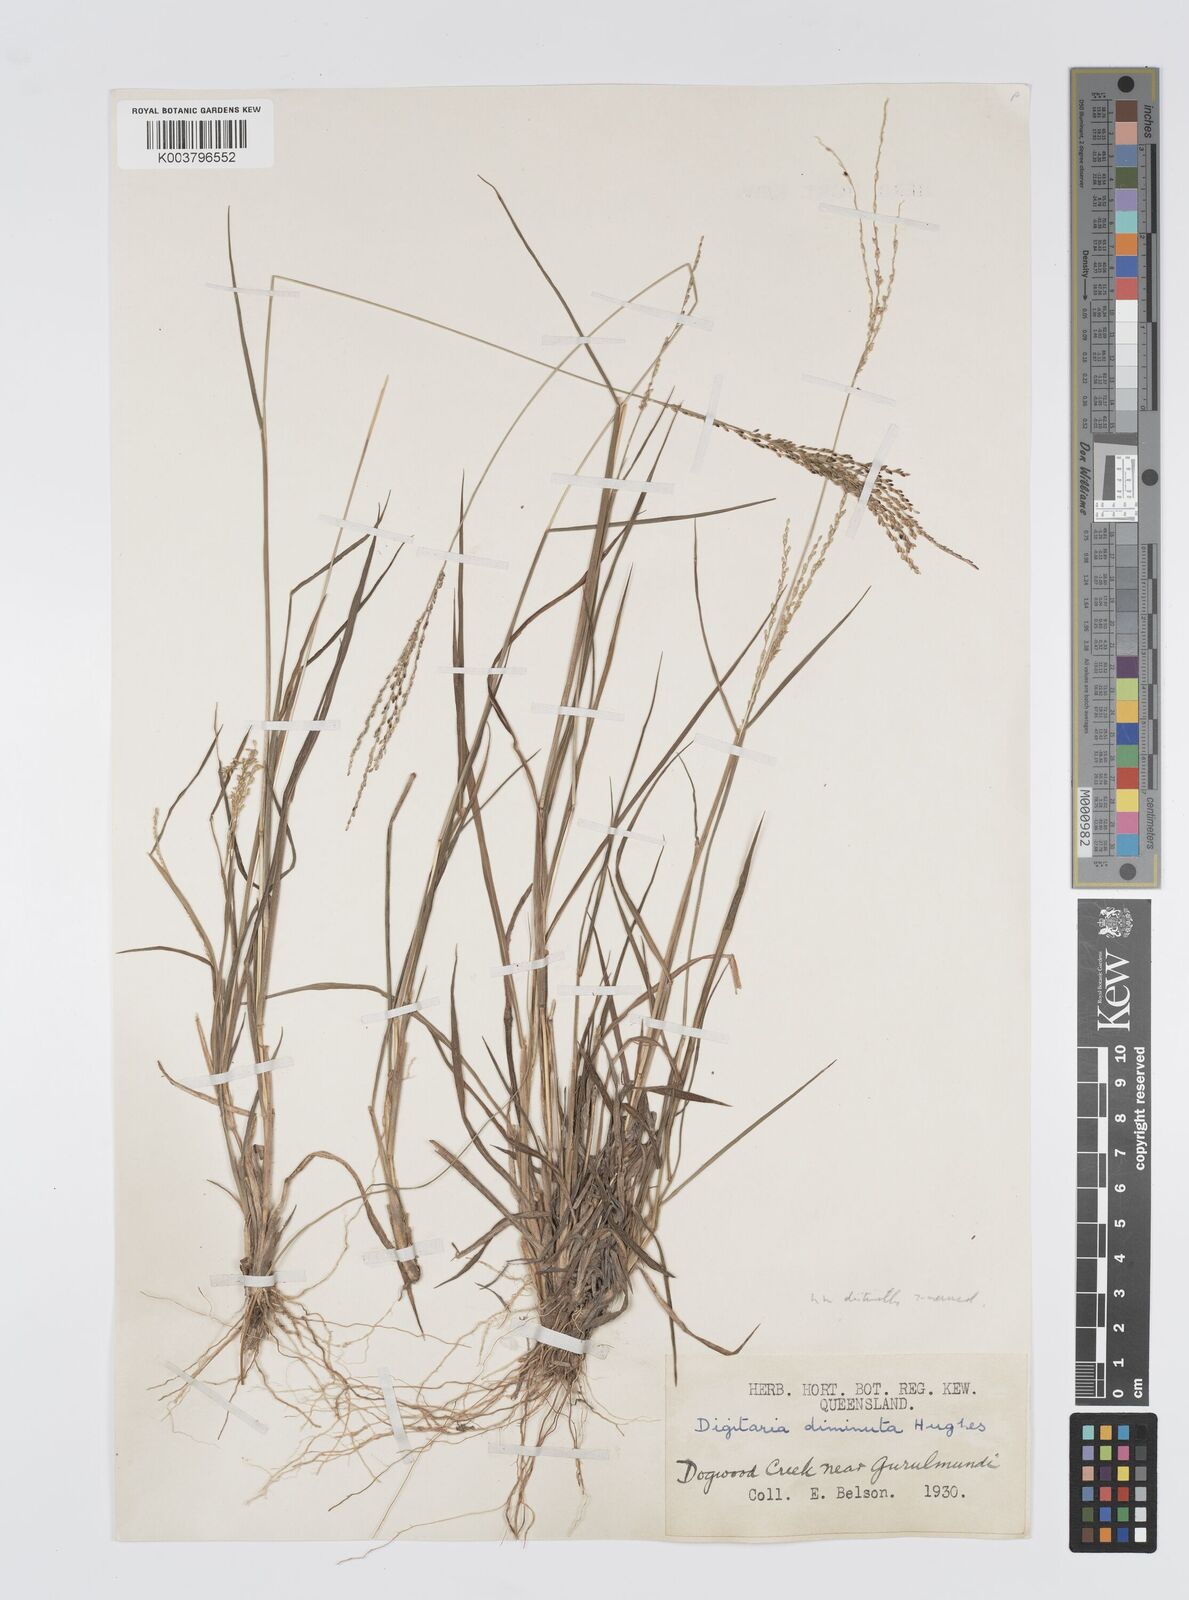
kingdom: Plantae
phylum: Tracheophyta
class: Liliopsida
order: Poales
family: Poaceae
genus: Digitaria
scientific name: Digitaria breviglumis
